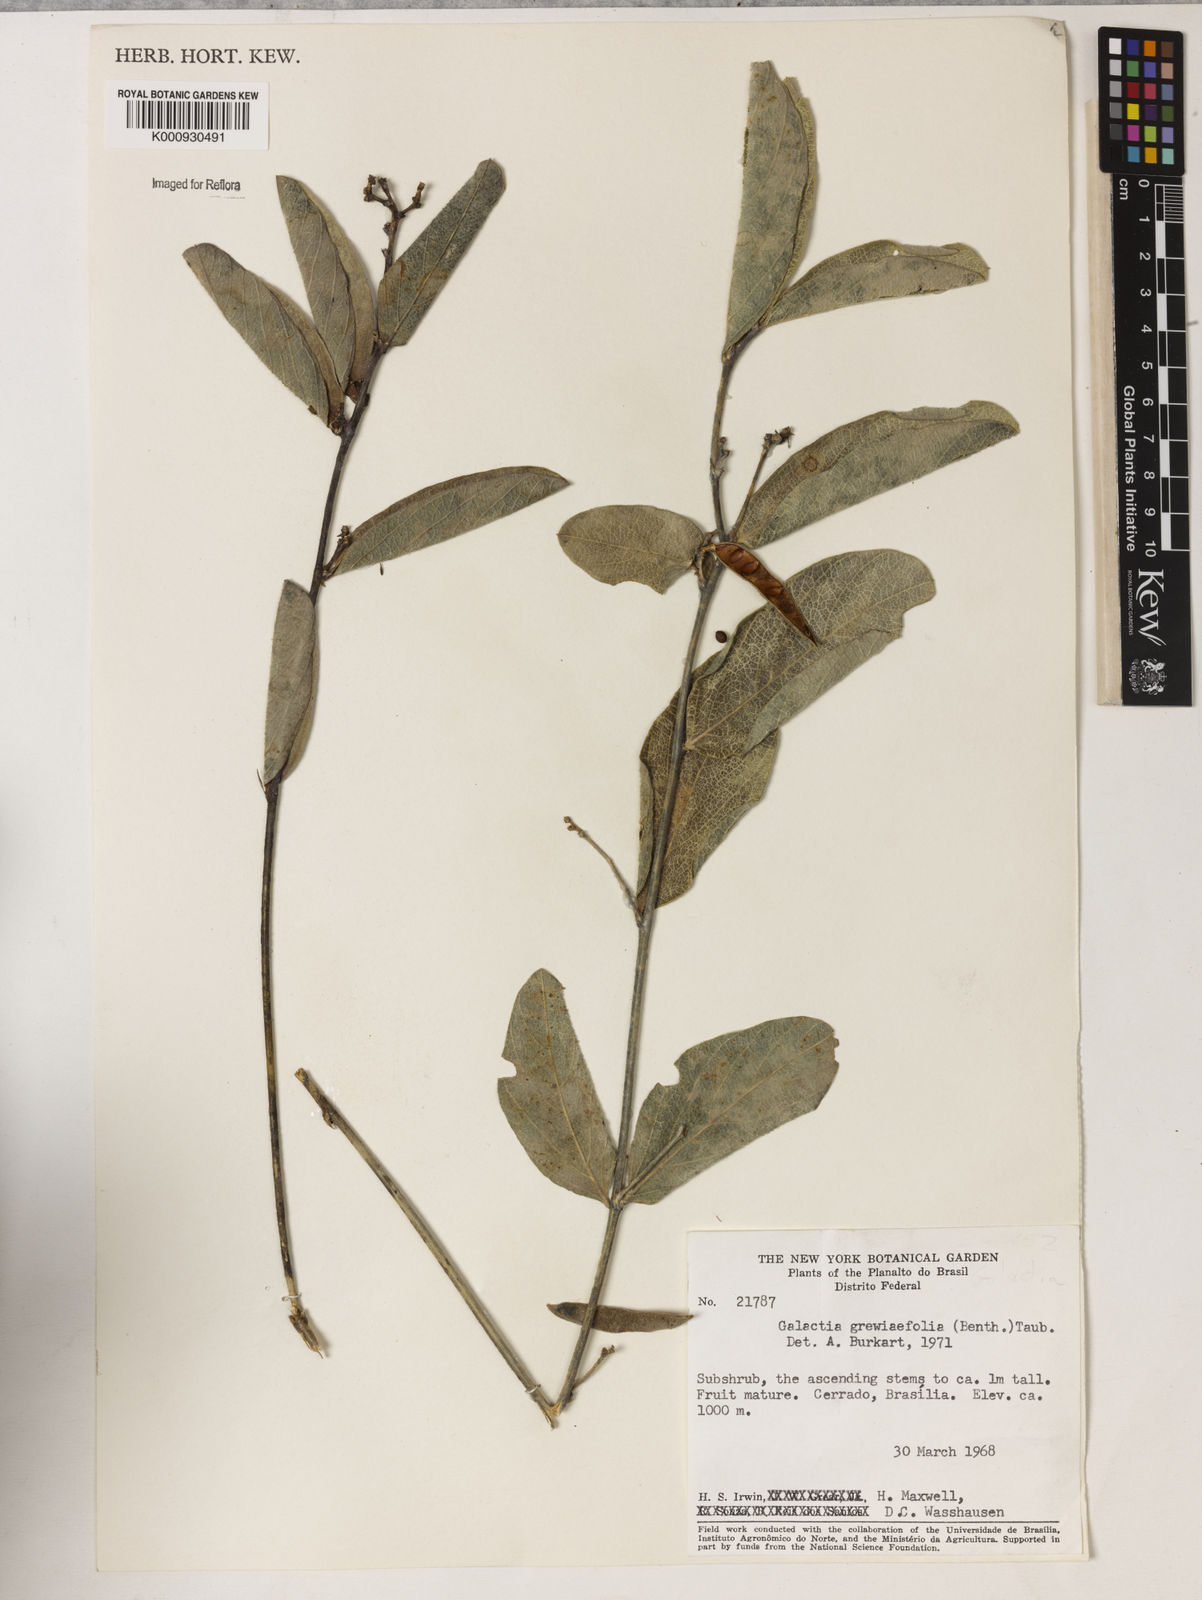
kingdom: Plantae
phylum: Tracheophyta
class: Magnoliopsida
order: Fabales
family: Fabaceae
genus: Galactia
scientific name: Galactia
